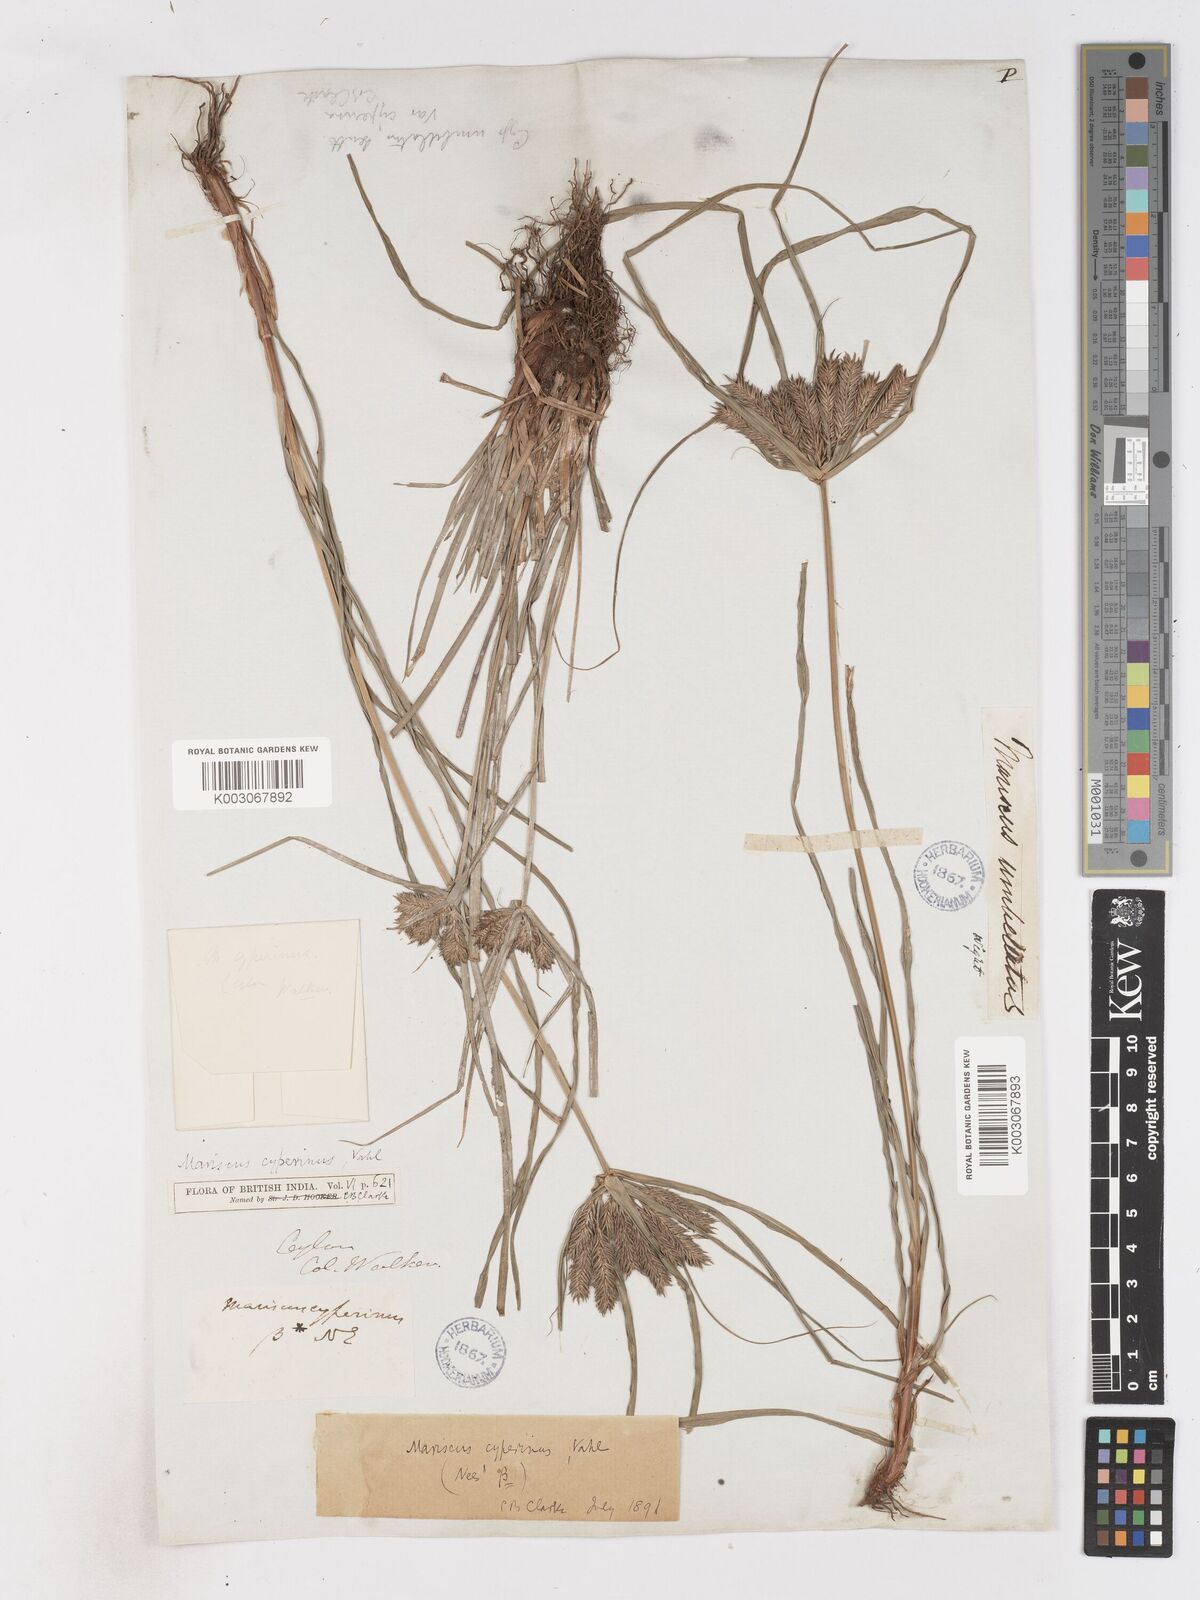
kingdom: Plantae
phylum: Tracheophyta
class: Liliopsida
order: Poales
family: Cyperaceae
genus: Cyperus
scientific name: Cyperus cyperinus
